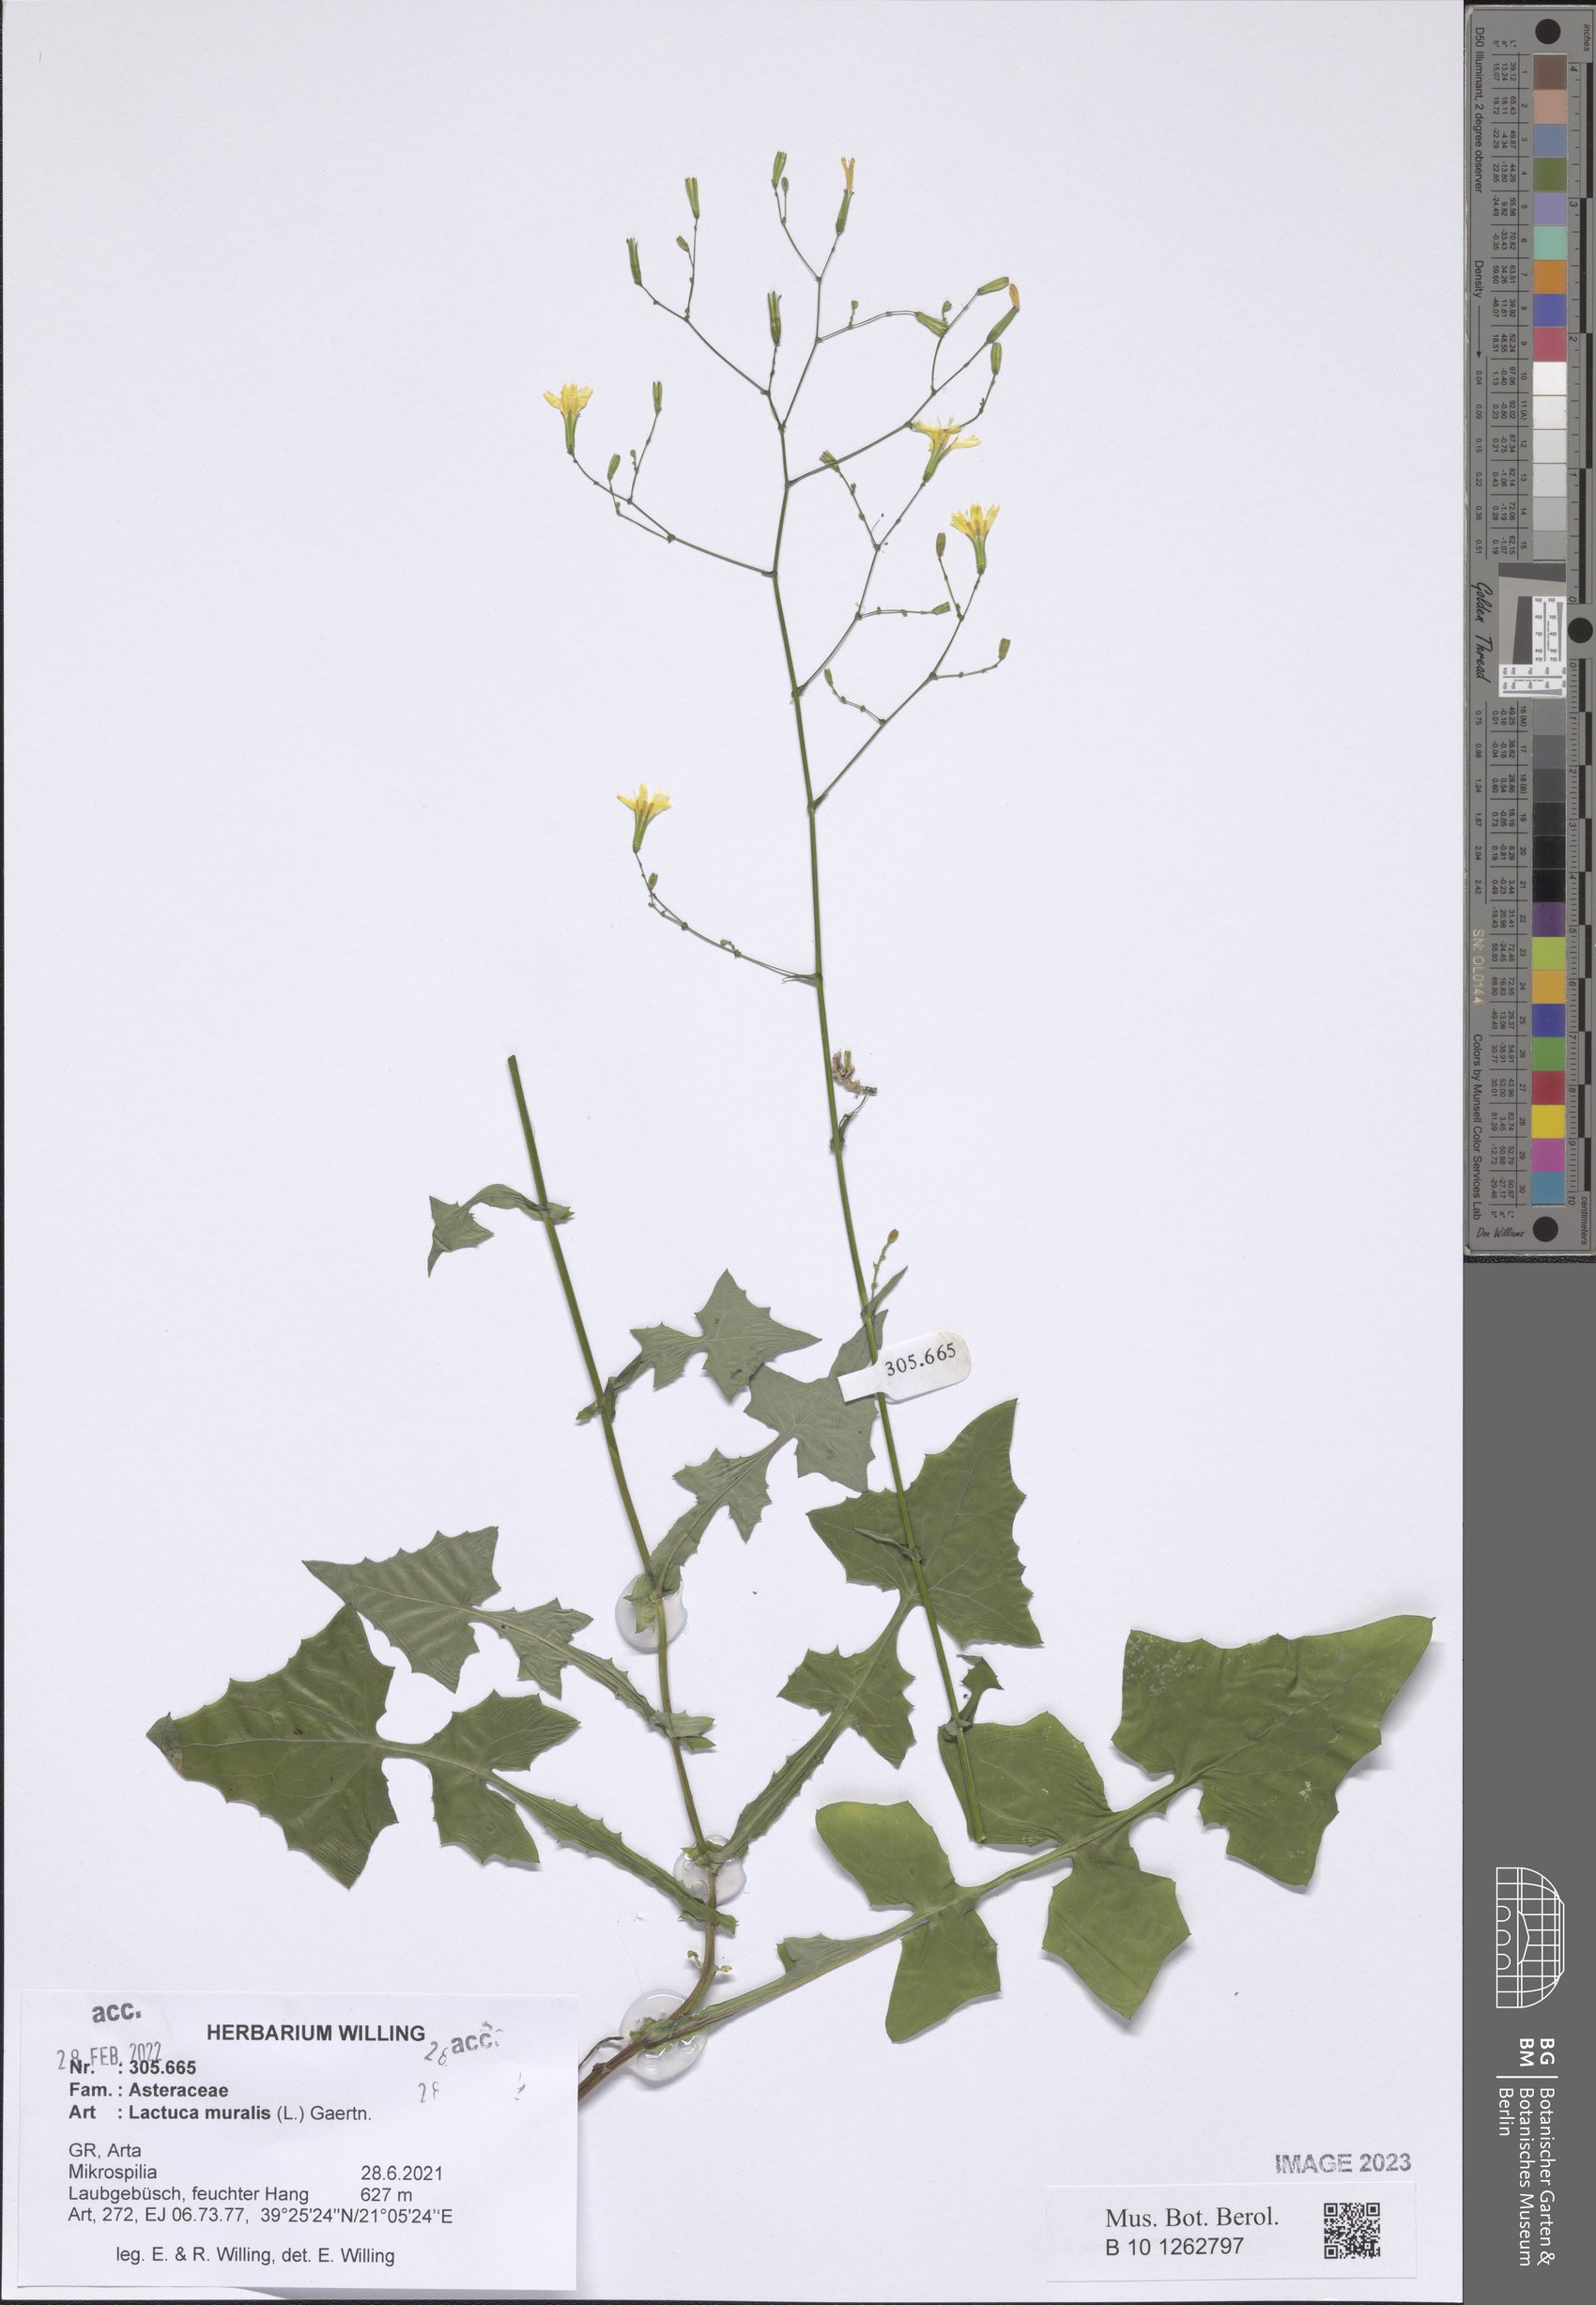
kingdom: Plantae
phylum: Tracheophyta
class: Magnoliopsida
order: Asterales
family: Asteraceae
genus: Mycelis
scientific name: Mycelis muralis
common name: Wall lettuce
